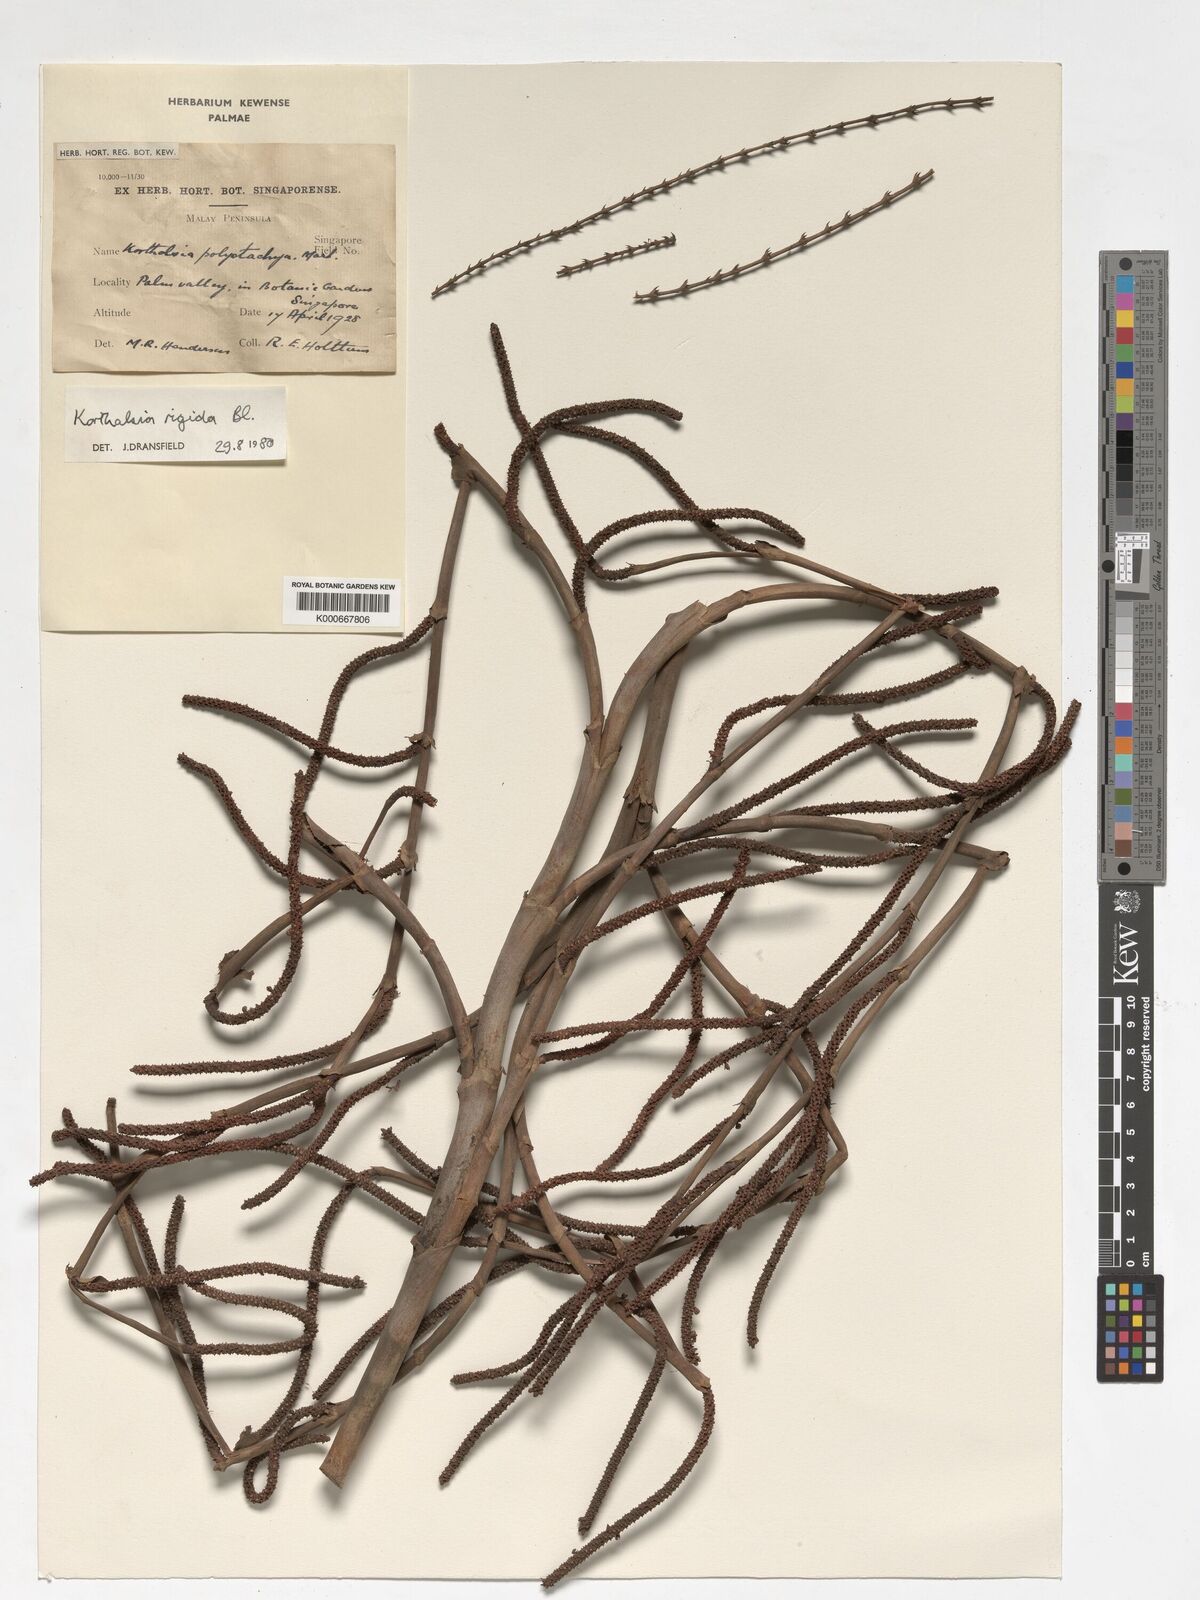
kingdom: Plantae
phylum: Tracheophyta
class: Liliopsida
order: Arecales
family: Arecaceae
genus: Korthalsia
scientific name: Korthalsia rigida
